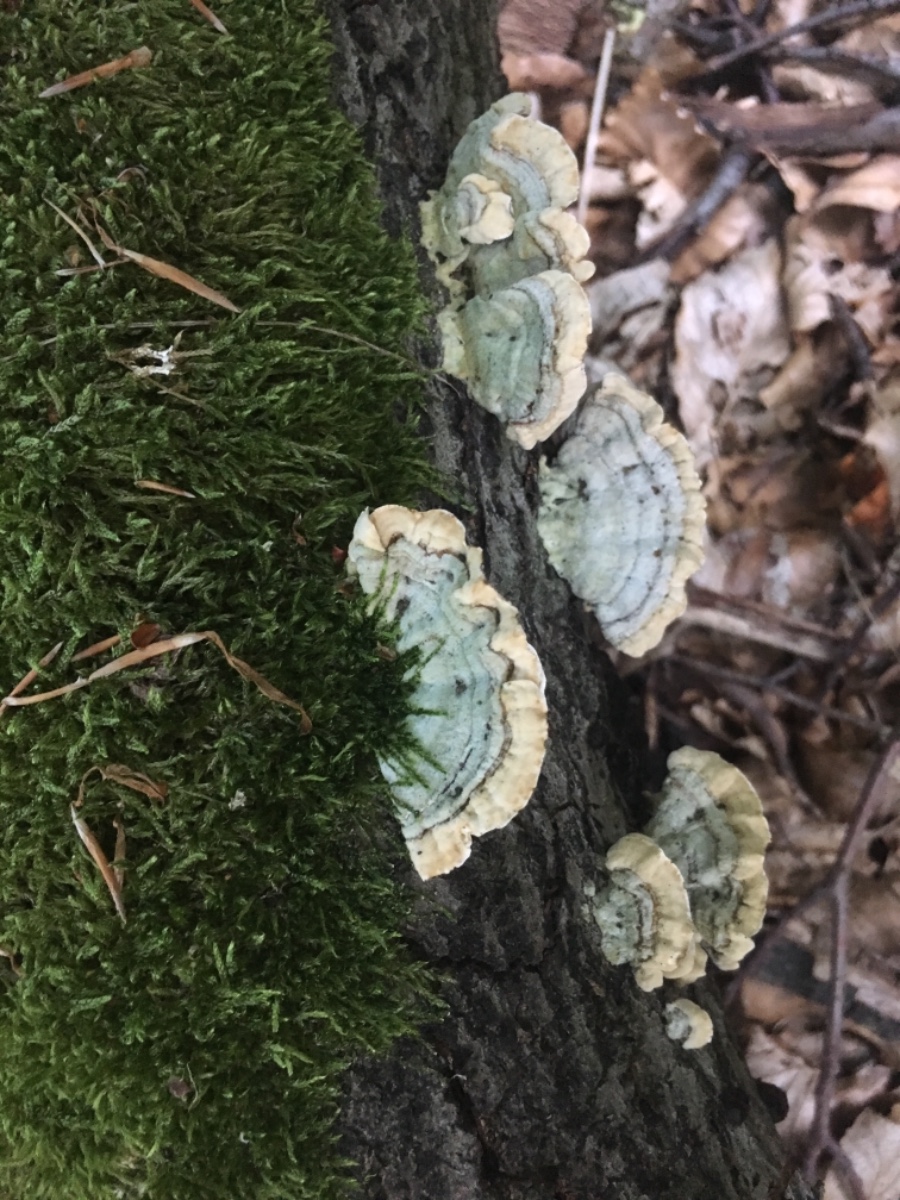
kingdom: Fungi
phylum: Basidiomycota
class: Agaricomycetes
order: Polyporales
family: Polyporaceae
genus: Trametes
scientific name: Trametes versicolor
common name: broget læderporesvamp
